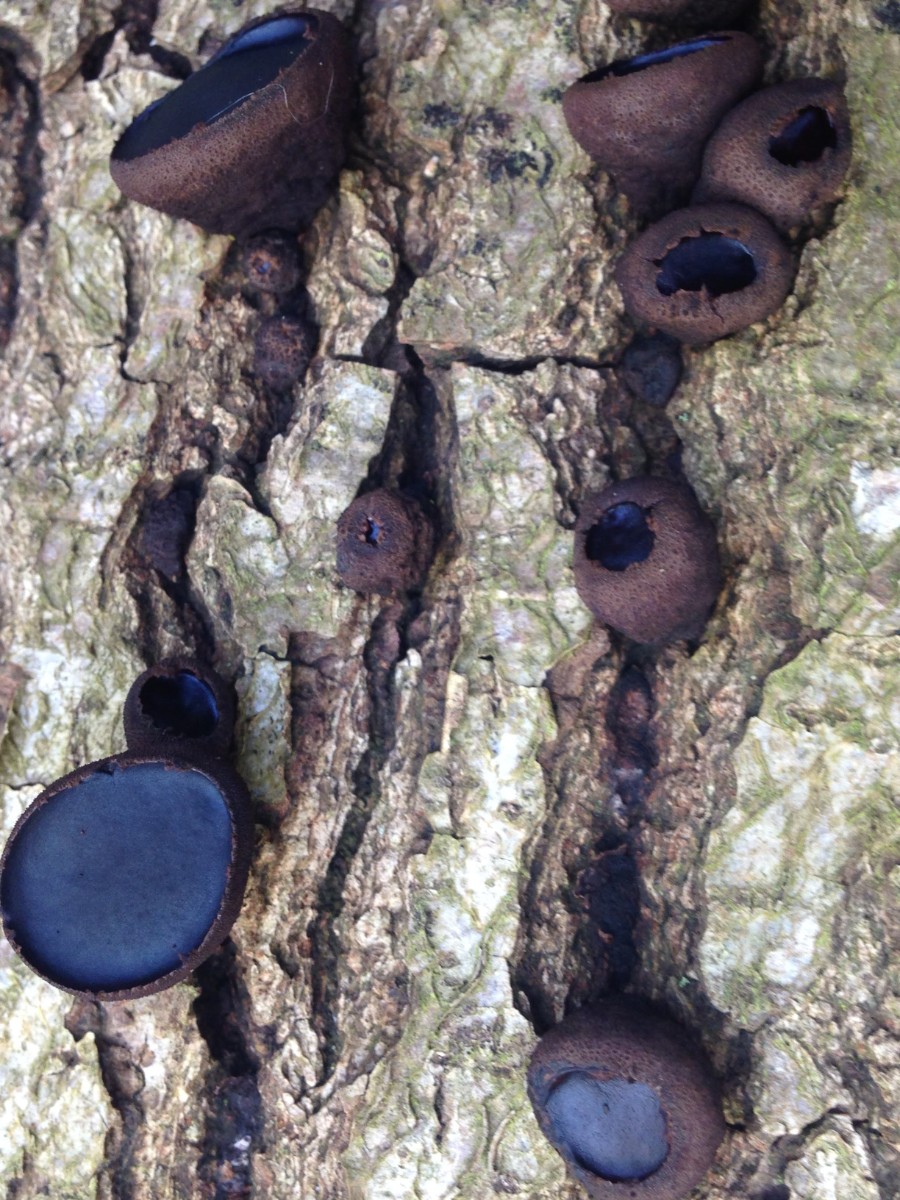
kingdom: Fungi
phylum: Ascomycota
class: Leotiomycetes
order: Phacidiales
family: Phacidiaceae
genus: Bulgaria
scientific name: Bulgaria inquinans
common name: afsmittende topsvamp
